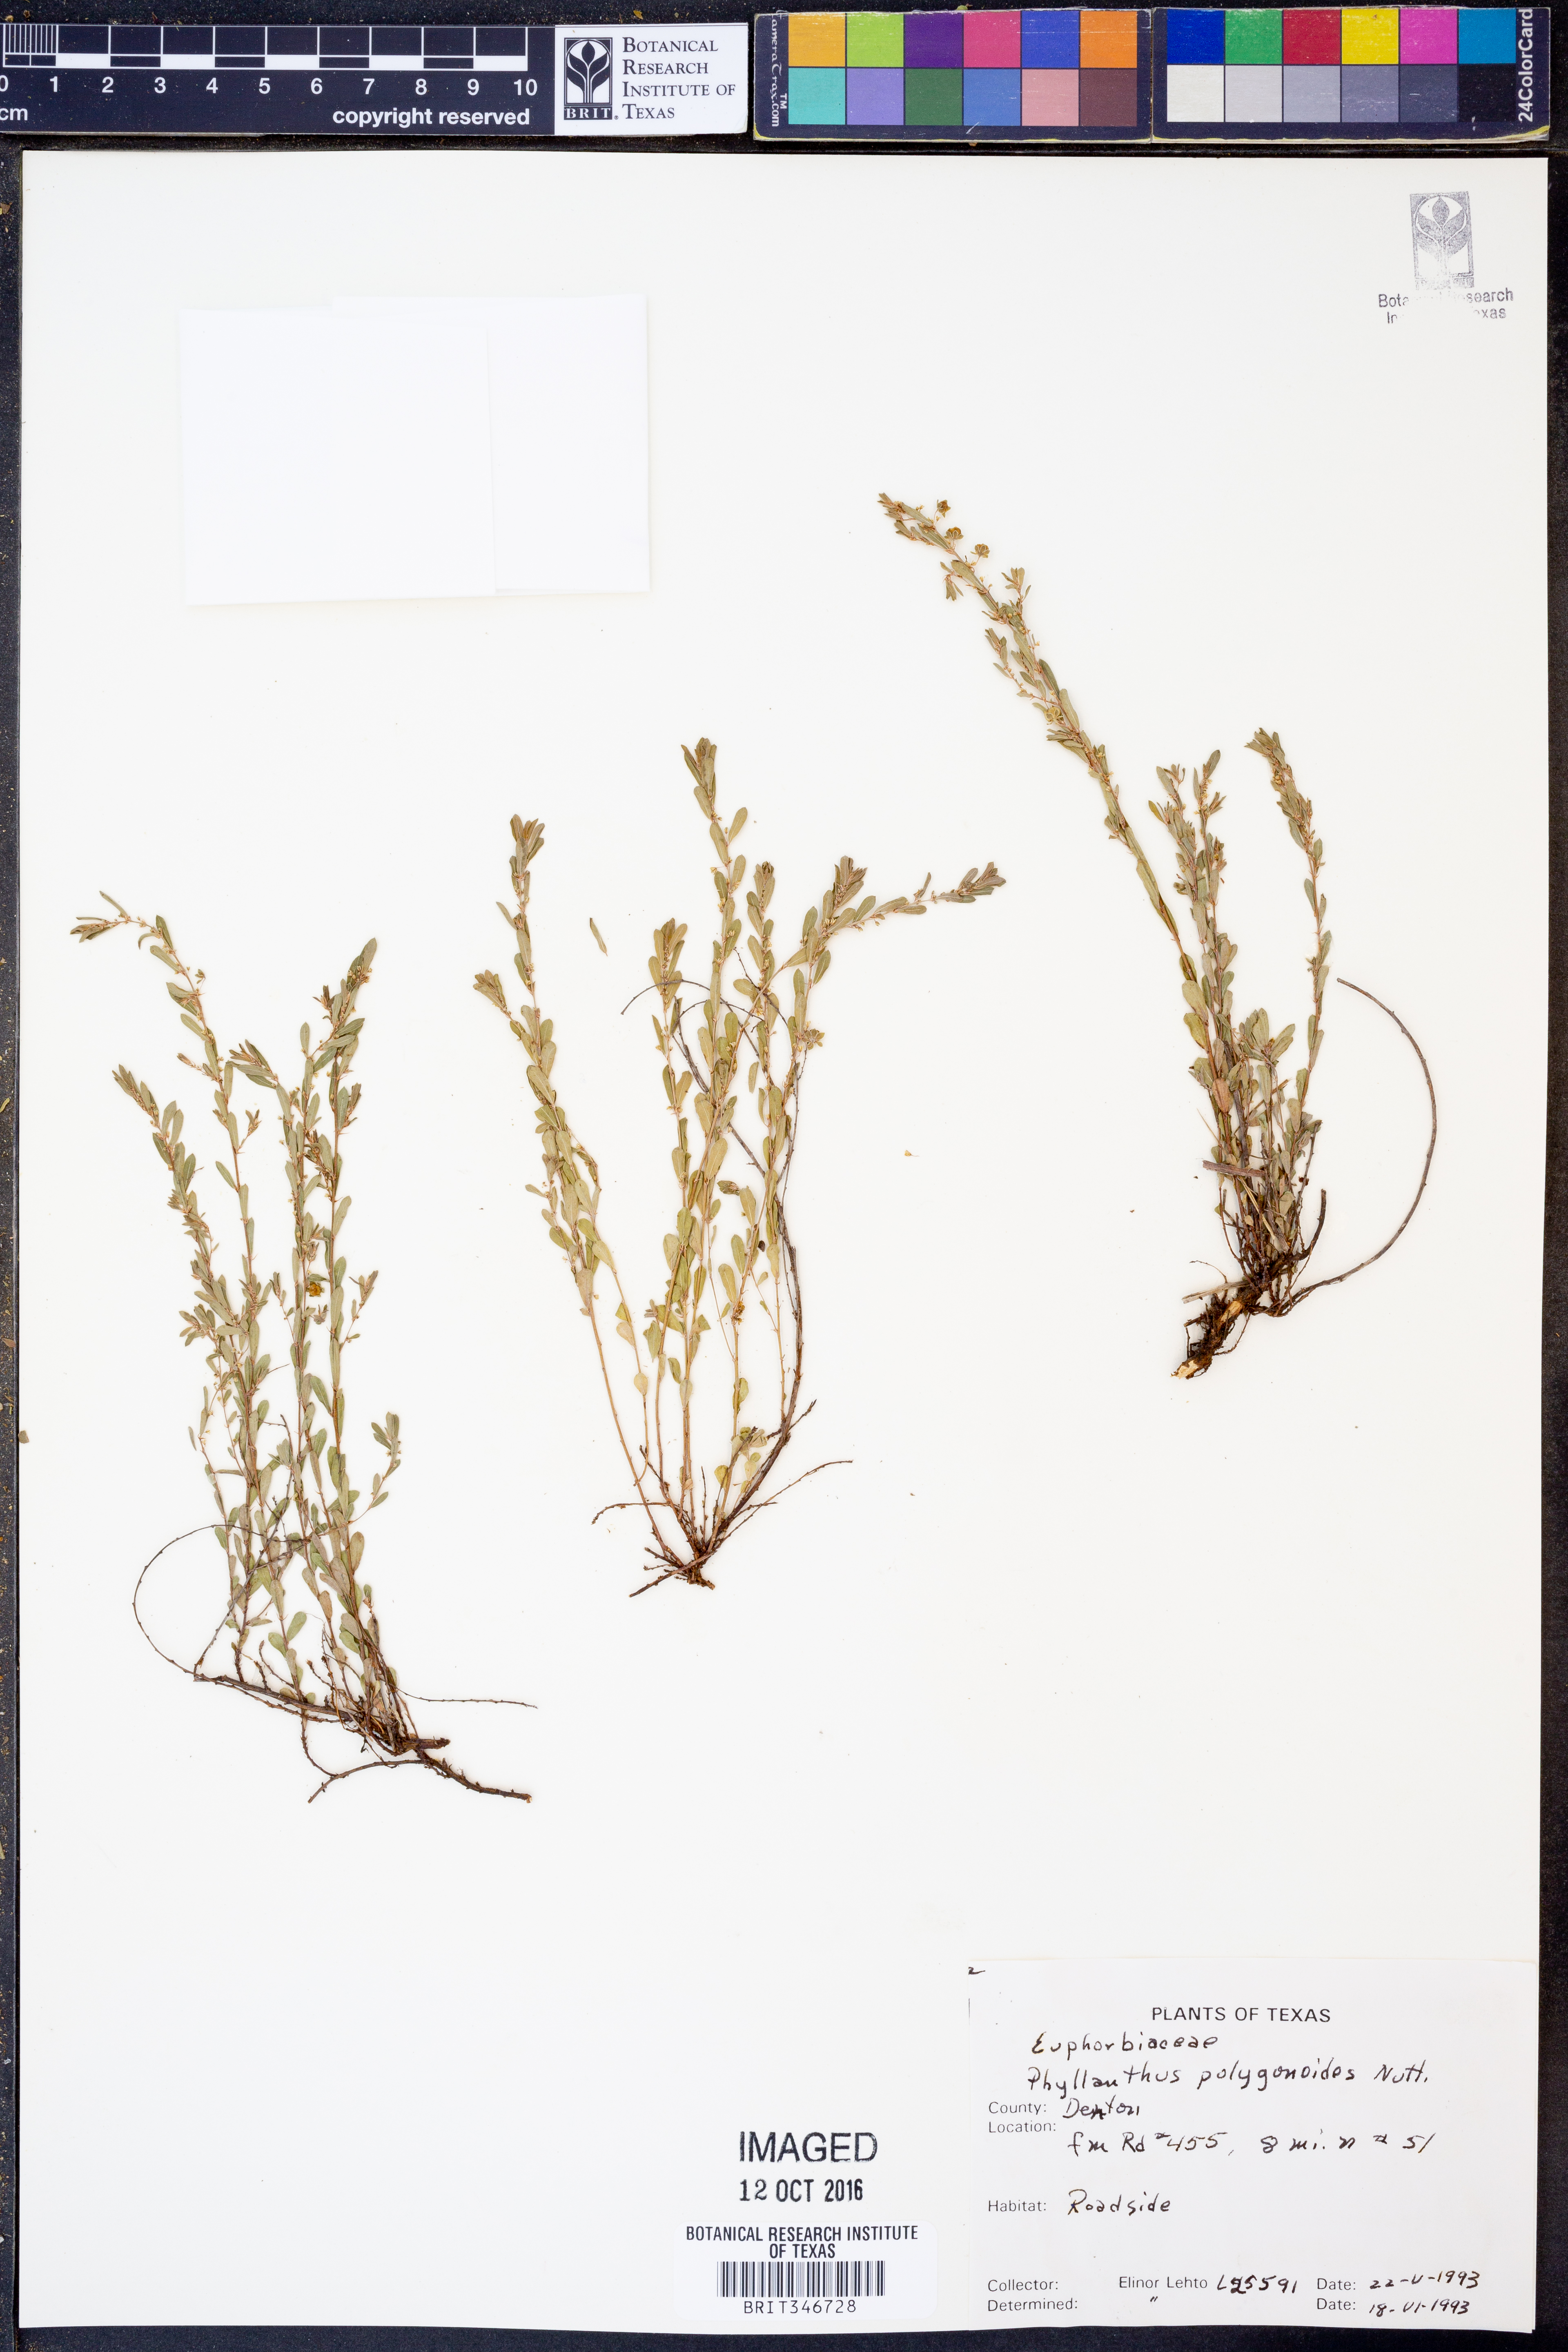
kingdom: Plantae
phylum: Tracheophyta
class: Magnoliopsida
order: Malpighiales
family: Phyllanthaceae
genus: Phyllanthus
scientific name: Phyllanthus polygonoides
